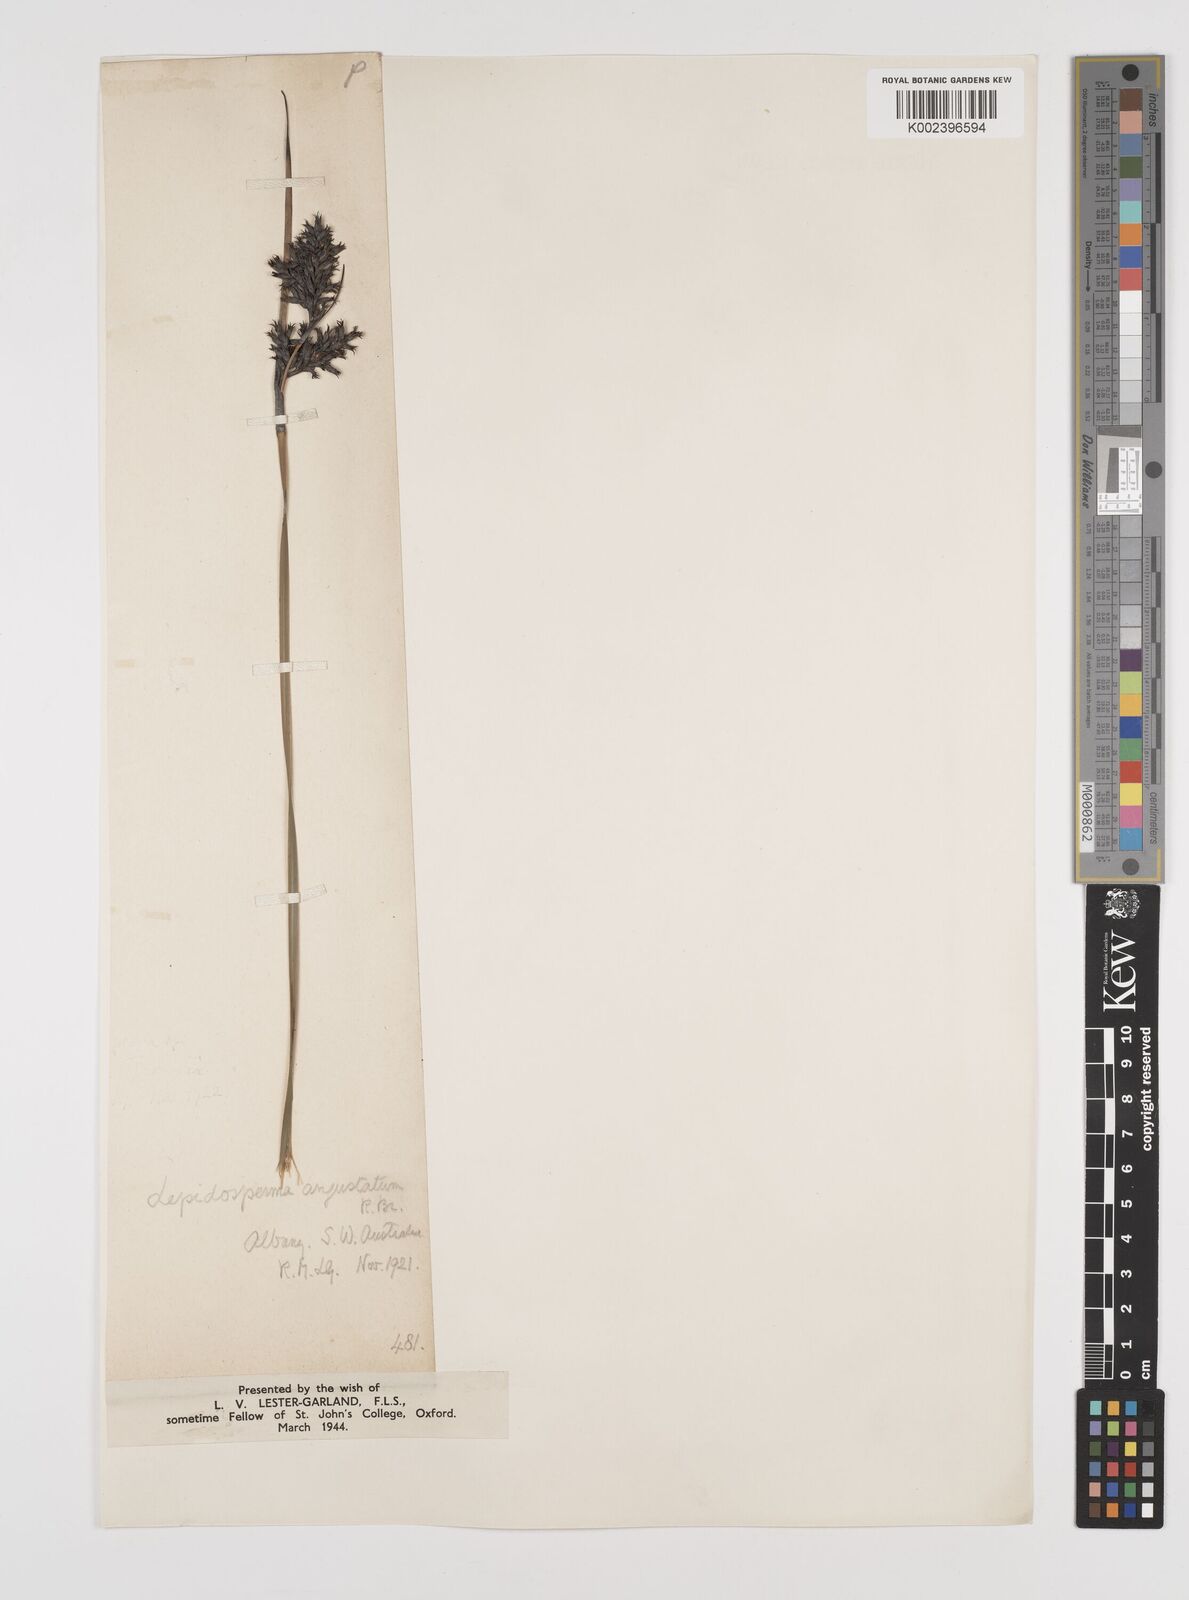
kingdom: Plantae
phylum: Tracheophyta
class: Liliopsida
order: Poales
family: Cyperaceae
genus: Lepidosperma
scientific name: Lepidosperma angustatum
